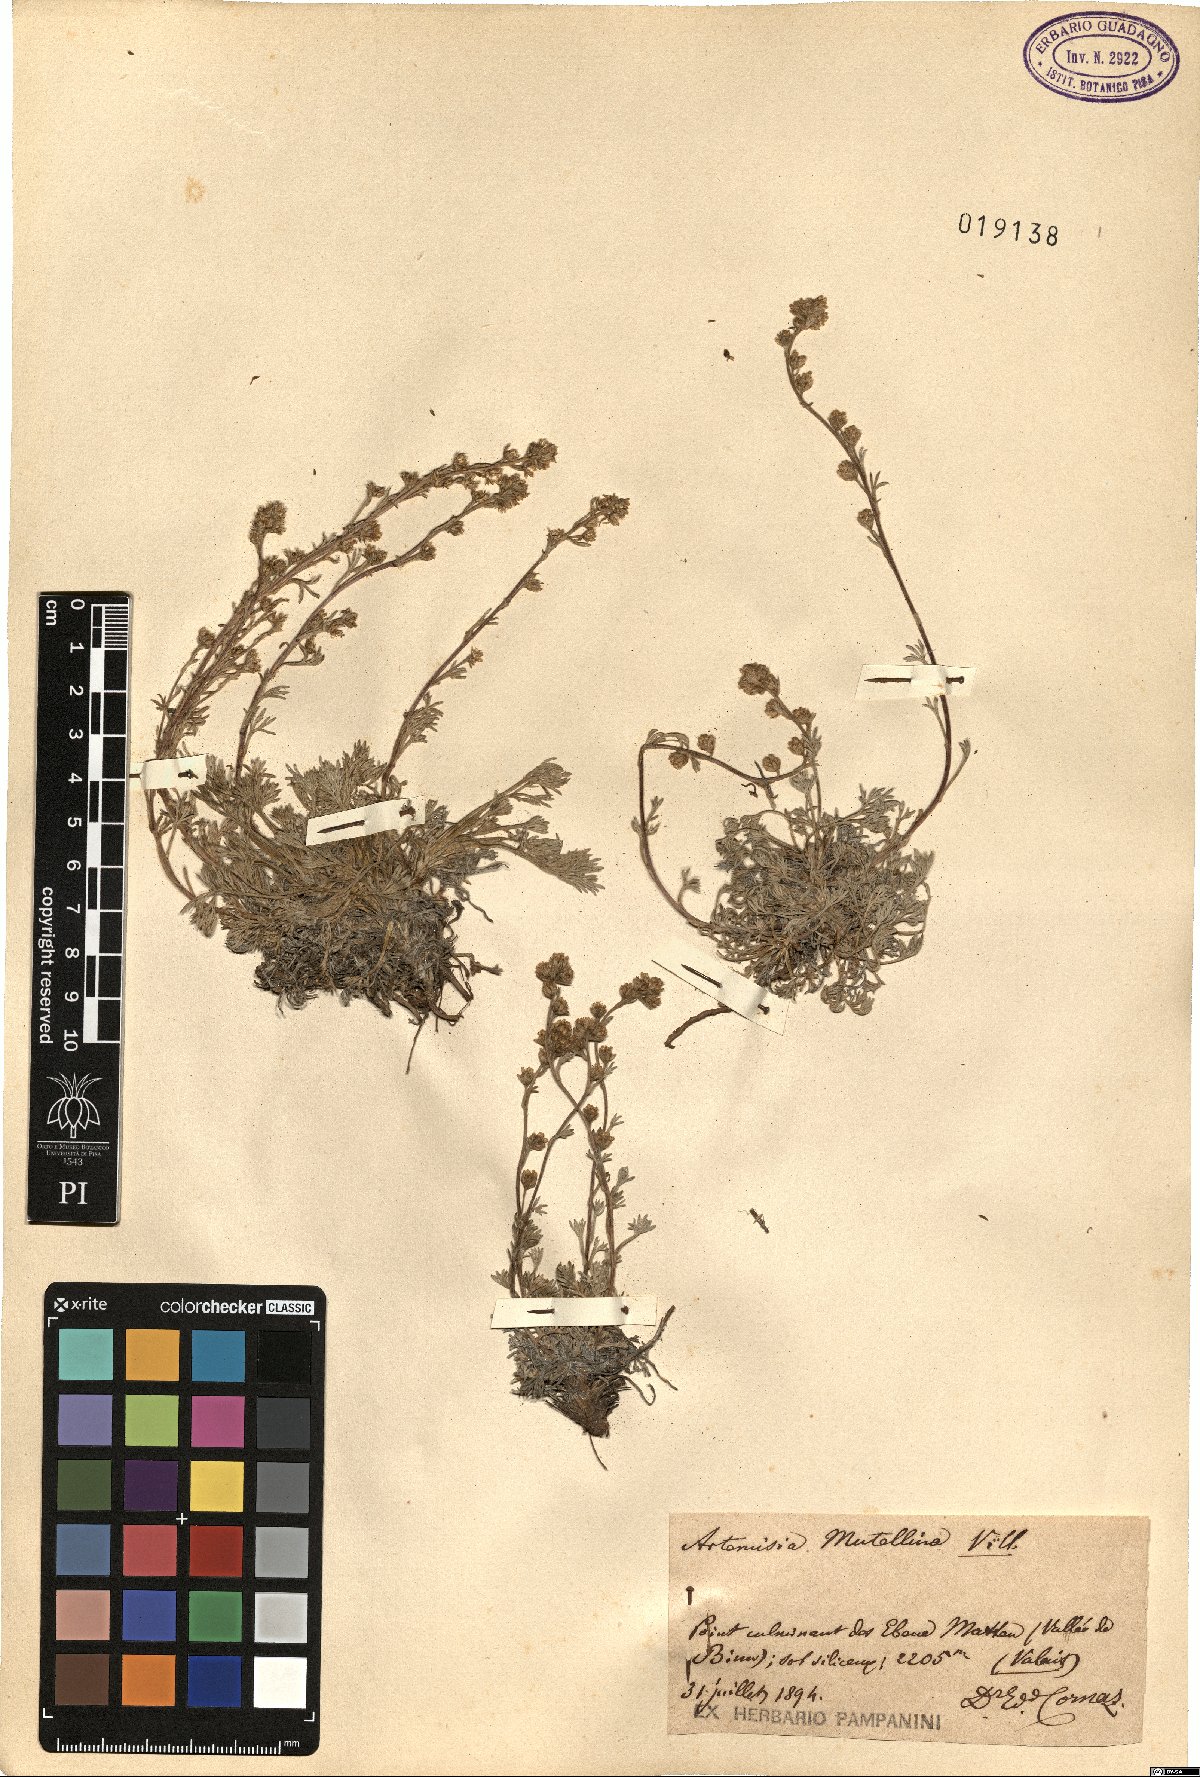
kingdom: Plantae
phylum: Tracheophyta
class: Magnoliopsida
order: Asterales
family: Asteraceae
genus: Artemisia
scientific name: Artemisia mutellina
